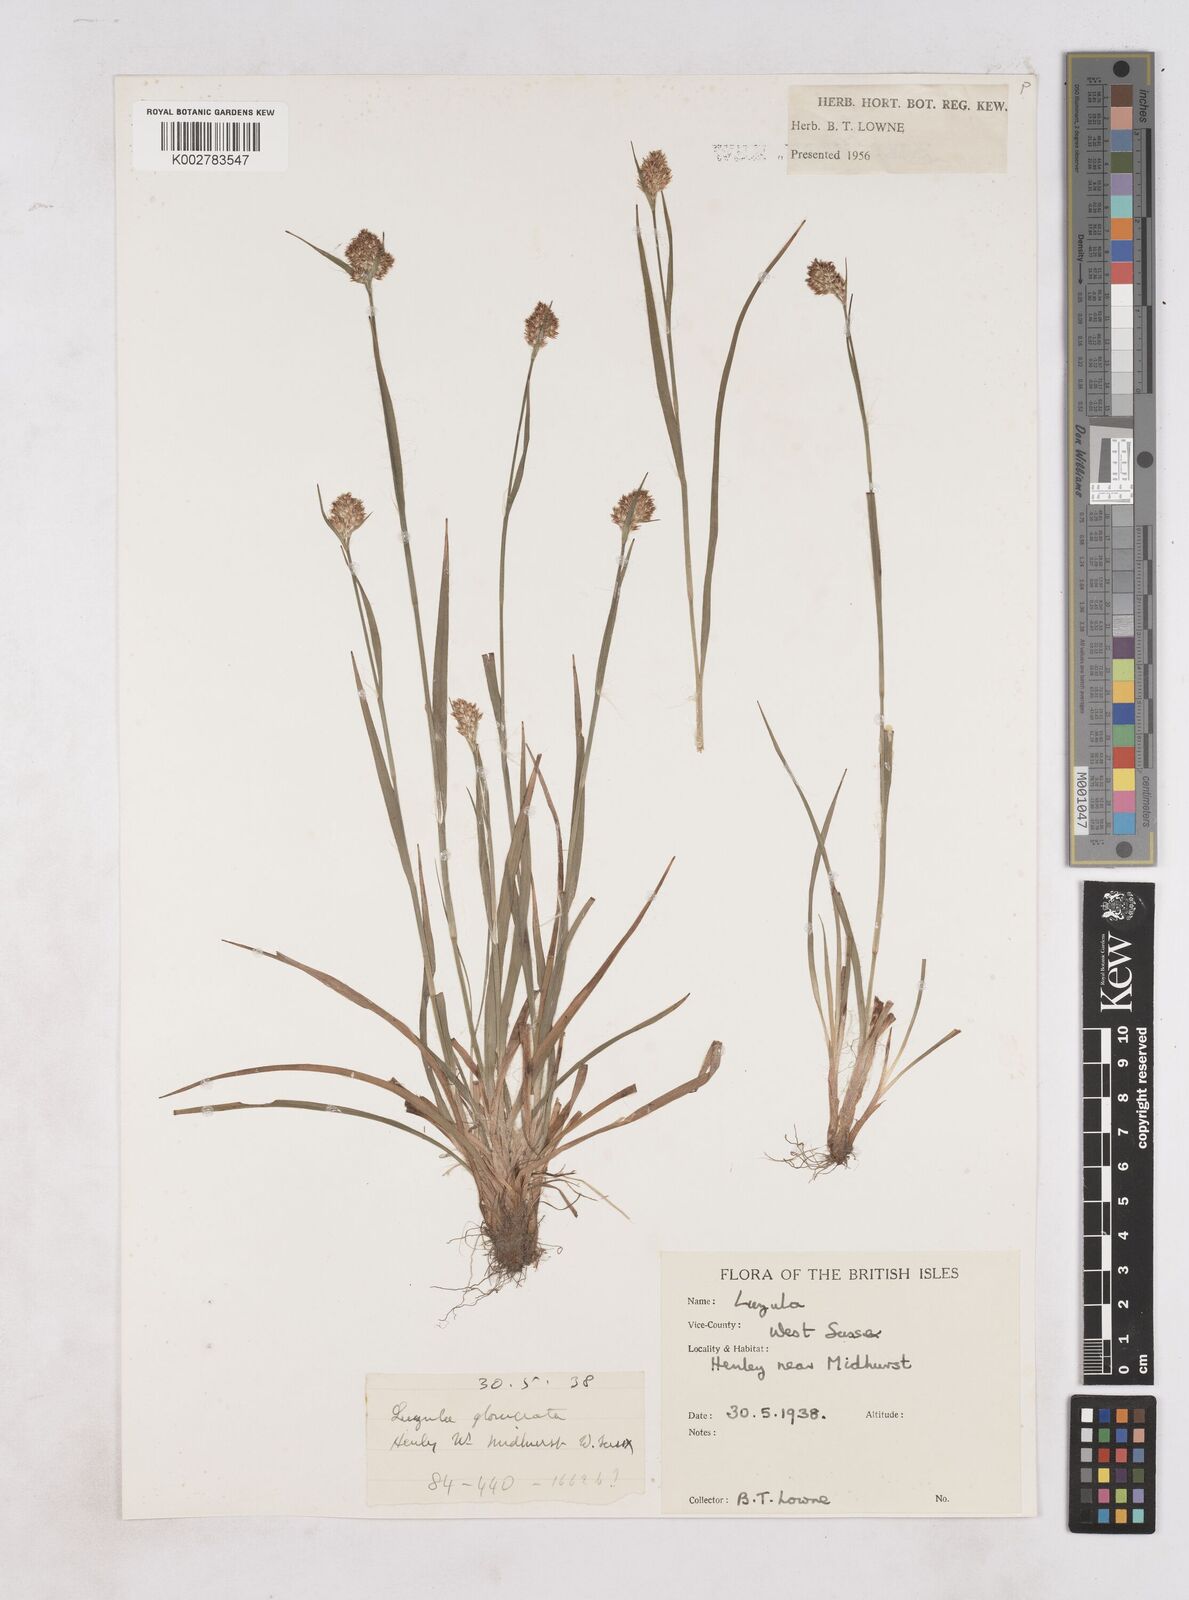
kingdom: Plantae
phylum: Tracheophyta
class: Liliopsida
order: Poales
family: Juncaceae
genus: Luzula
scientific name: Luzula
